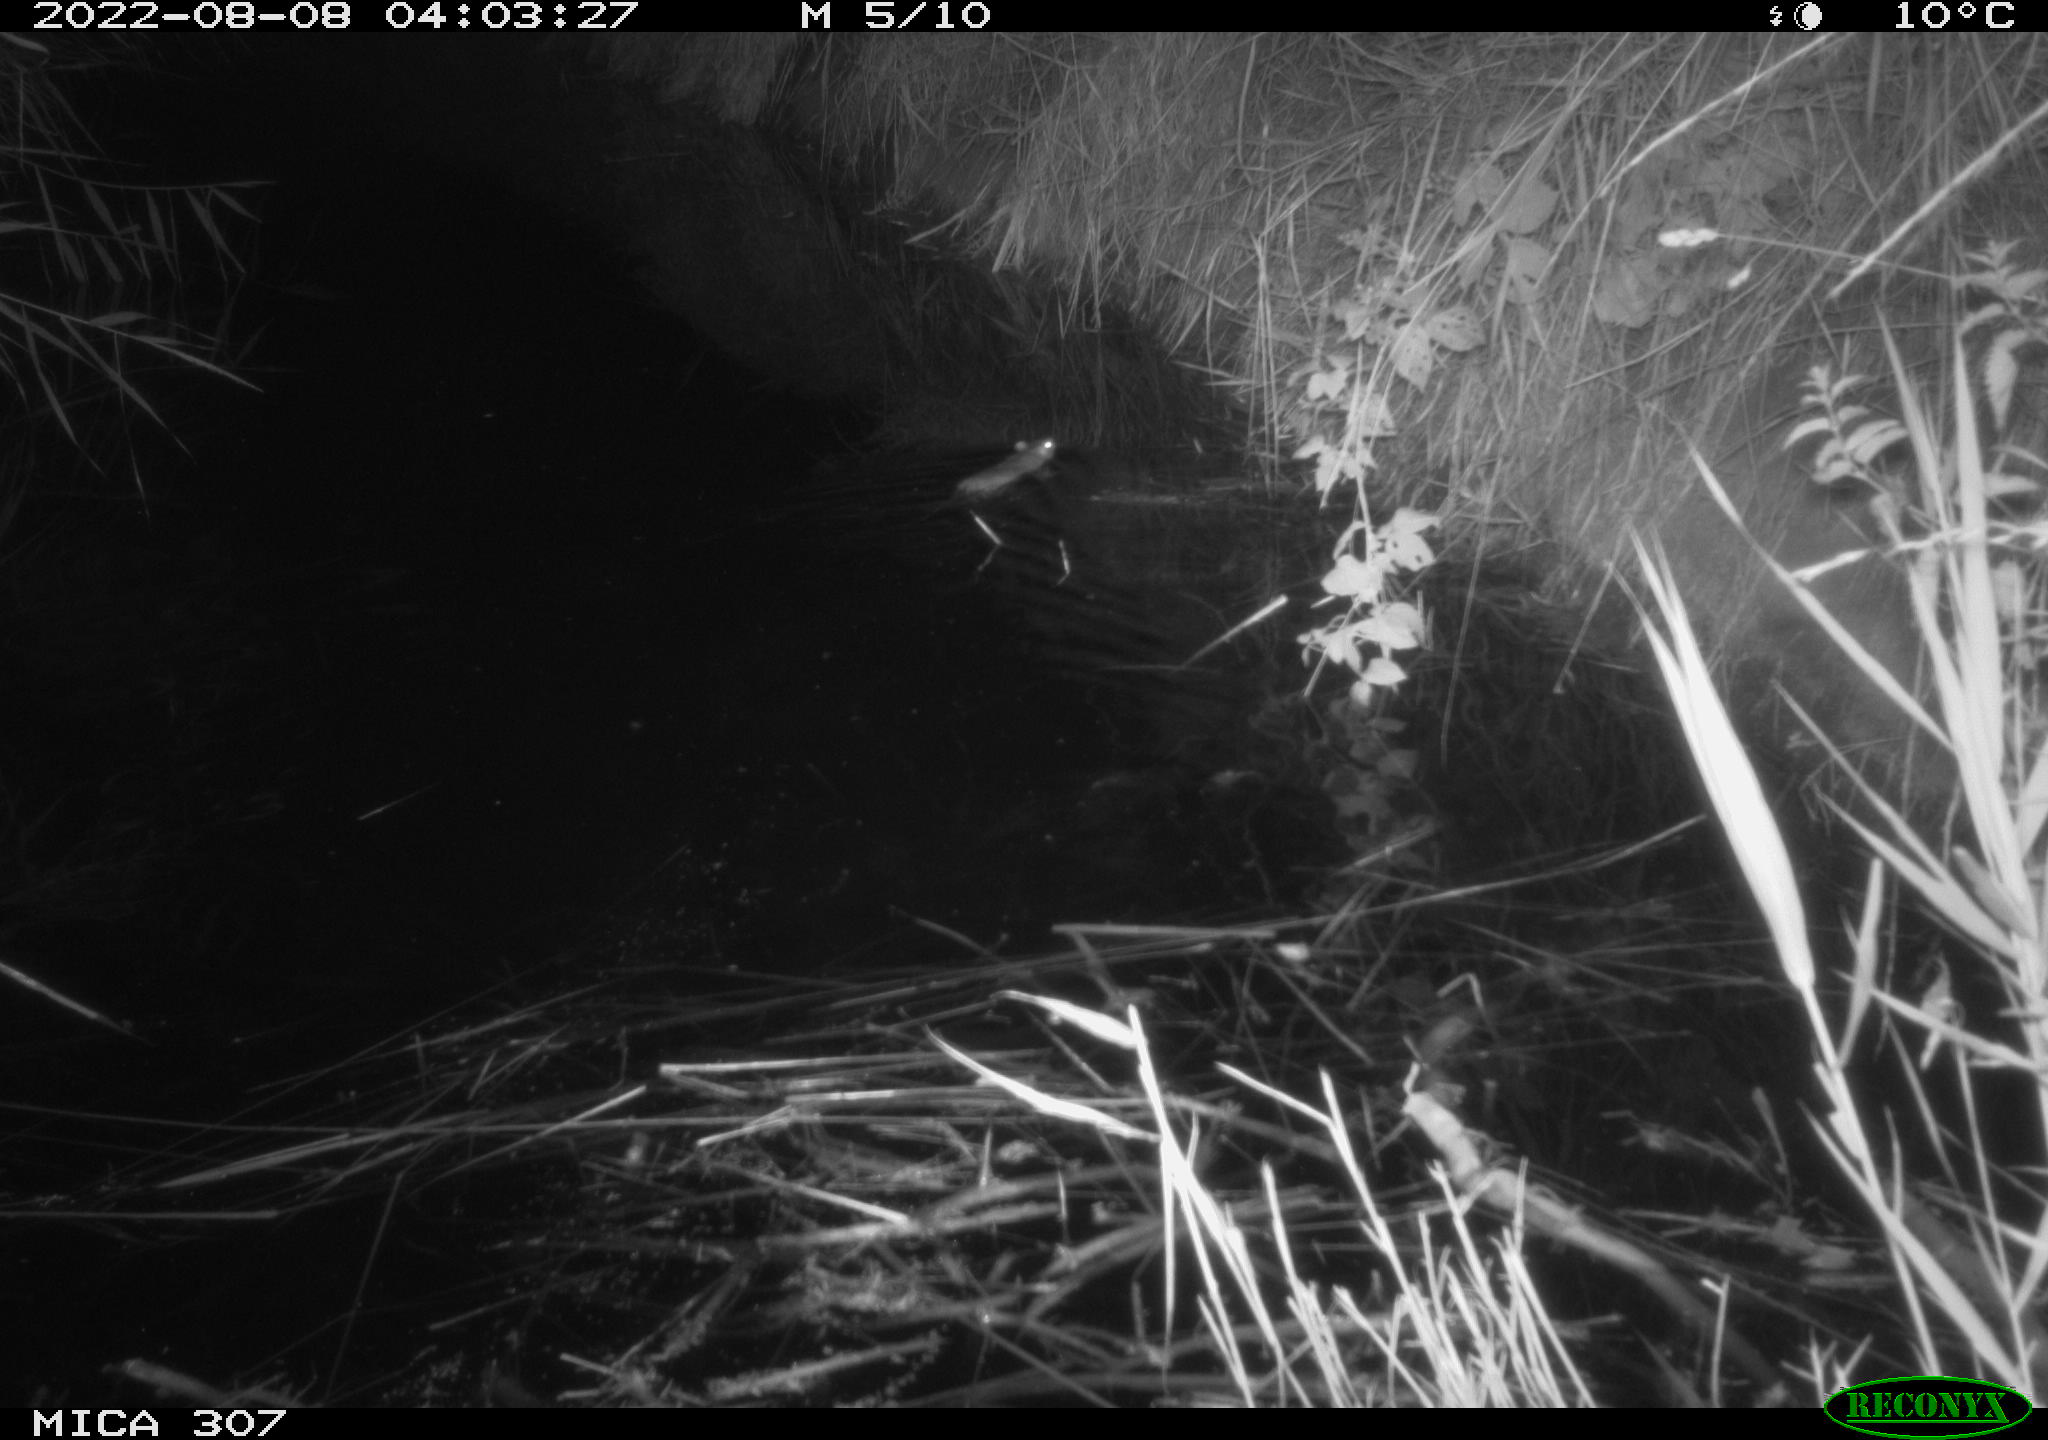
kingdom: Animalia
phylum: Chordata
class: Mammalia
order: Rodentia
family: Muridae
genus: Rattus
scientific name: Rattus norvegicus
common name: Brown rat
